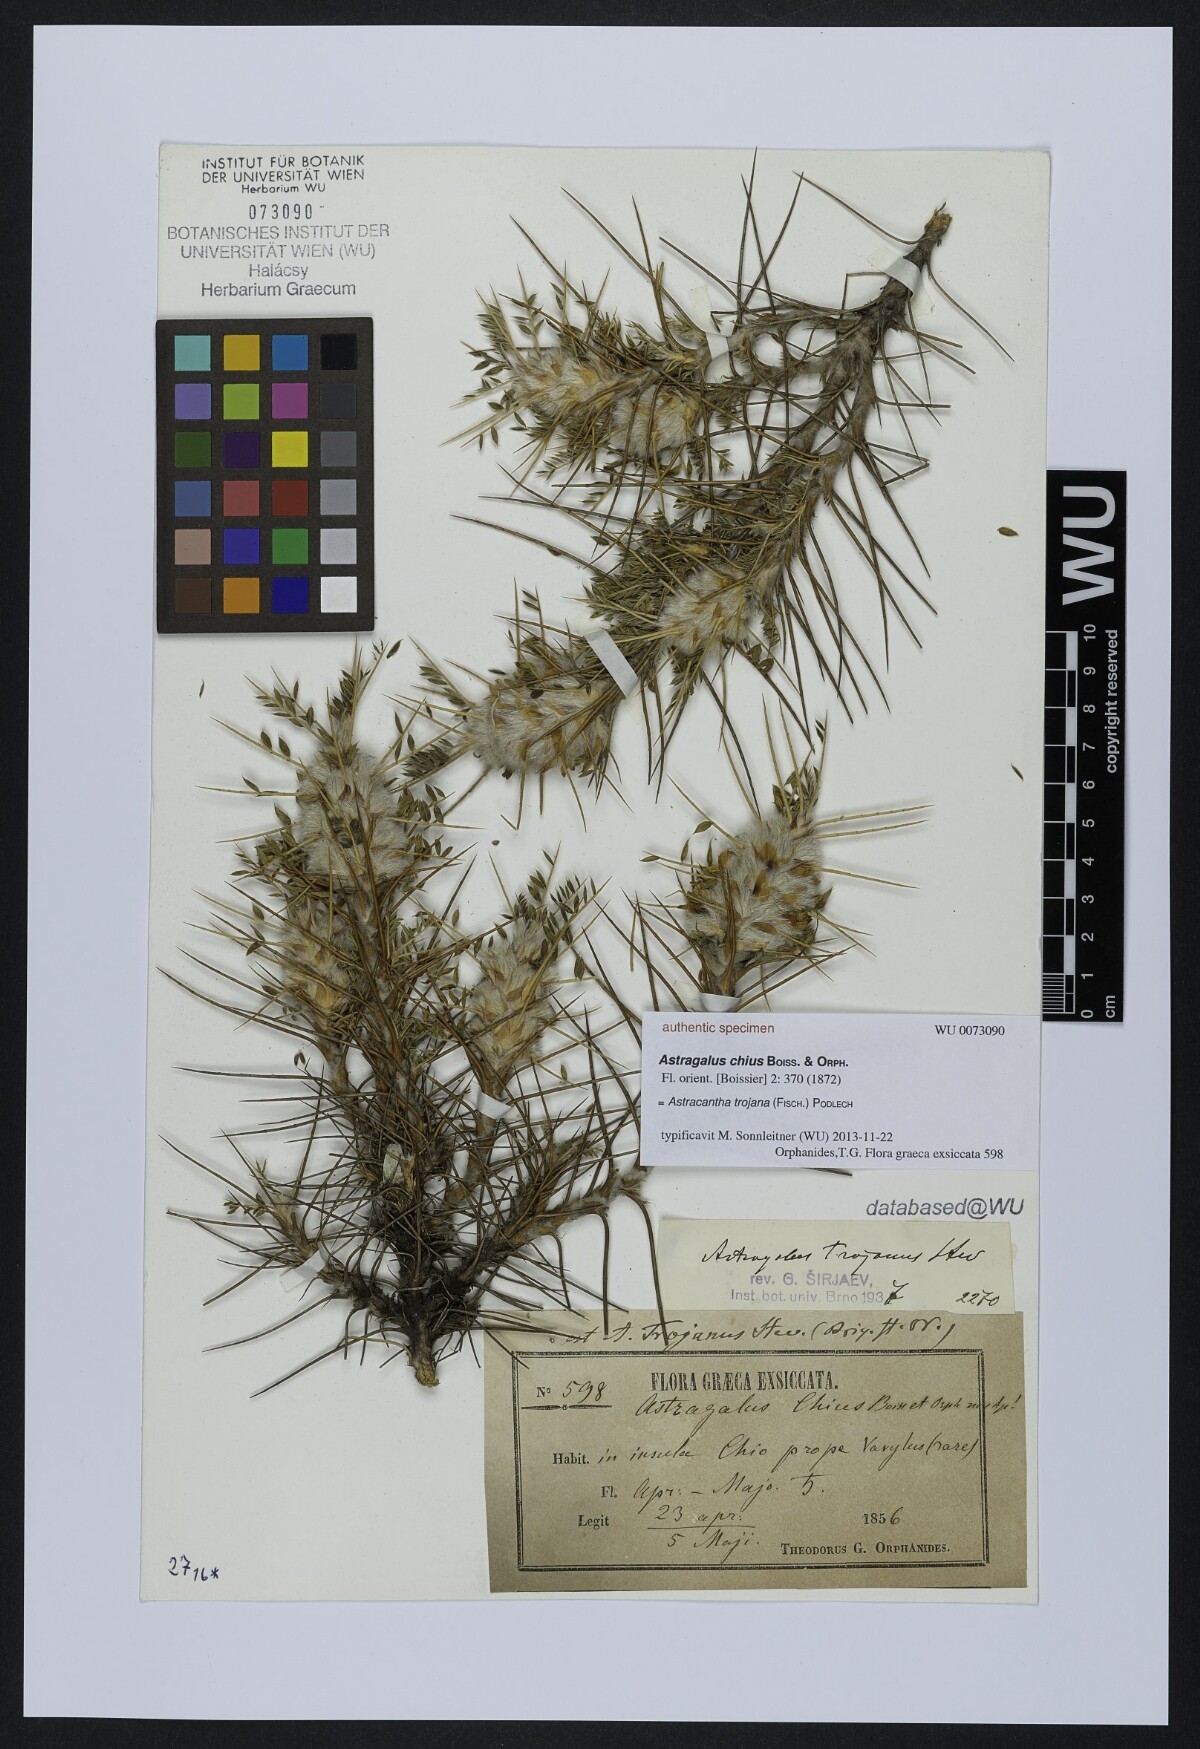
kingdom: Plantae
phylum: Tracheophyta
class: Magnoliopsida
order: Fabales
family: Fabaceae
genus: Astragalus
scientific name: Astragalus lesbiacus
